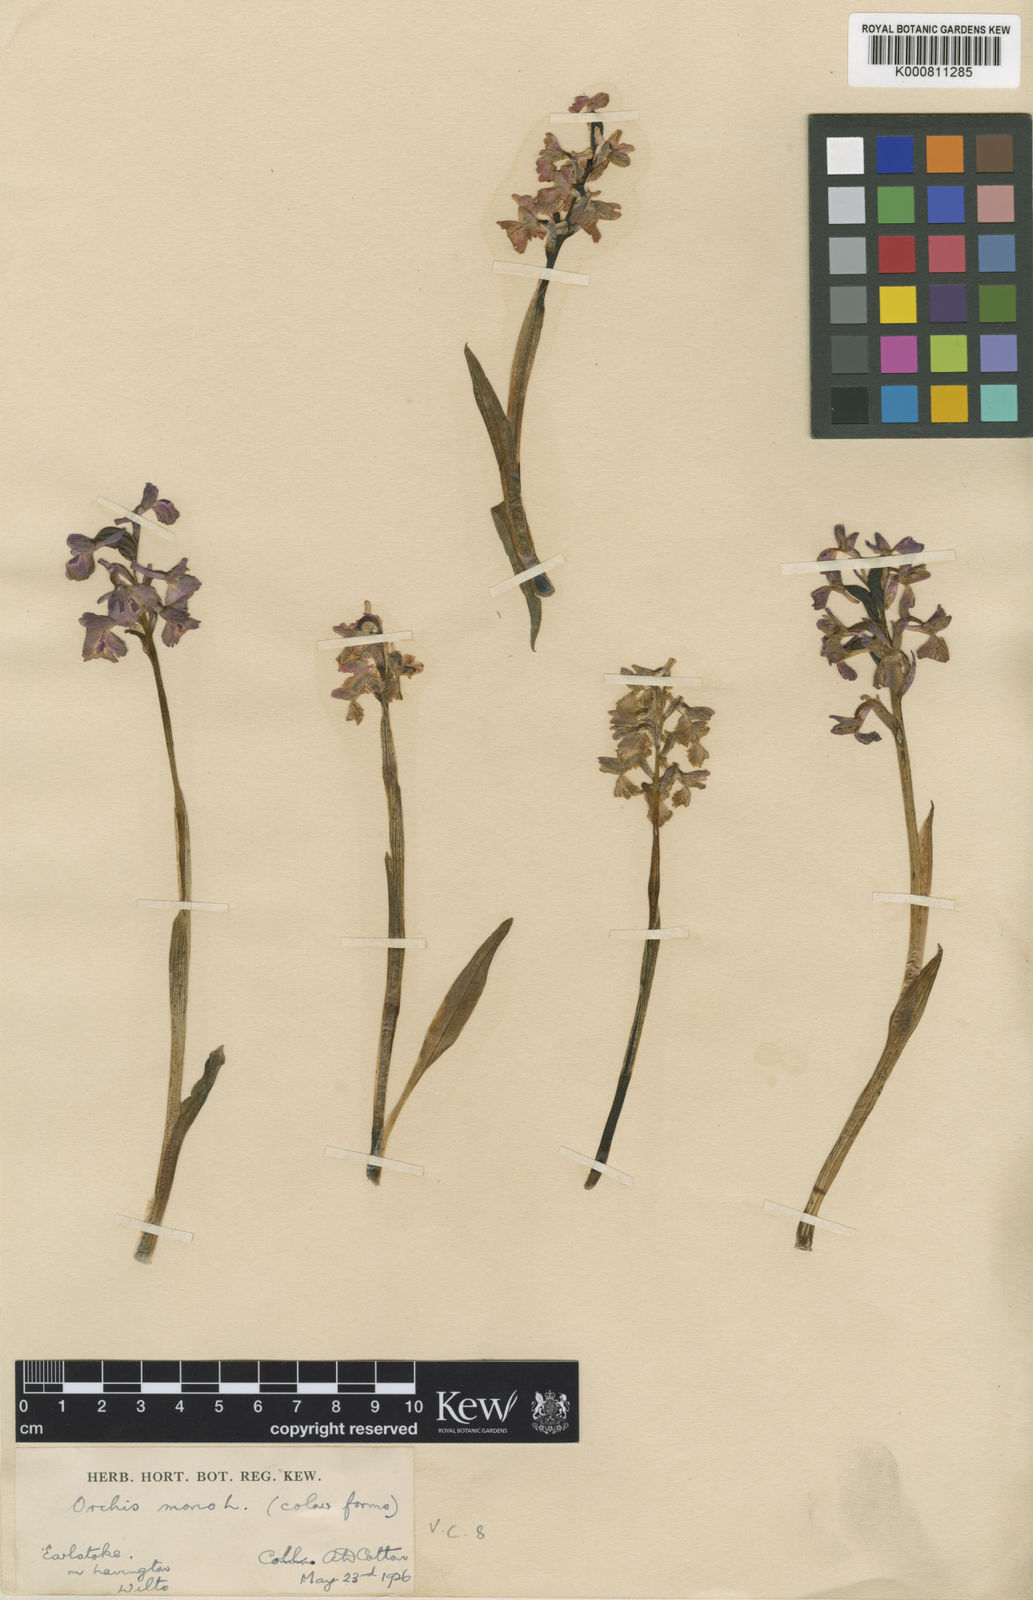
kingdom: Plantae
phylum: Tracheophyta
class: Liliopsida
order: Asparagales
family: Orchidaceae
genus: Anacamptis
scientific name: Anacamptis morio
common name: Green-winged orchid
